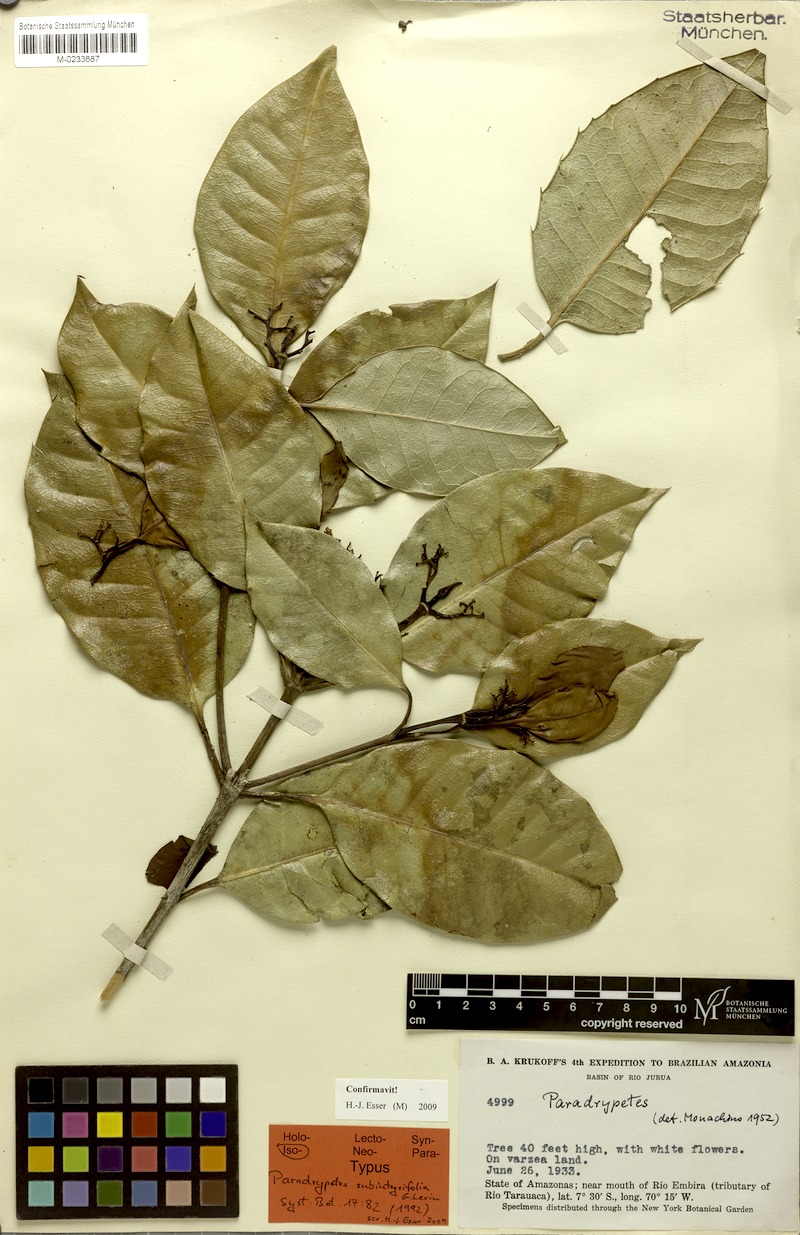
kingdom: Plantae
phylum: Tracheophyta
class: Magnoliopsida
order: Malpighiales
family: Rhizophoraceae
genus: Paradrypetes
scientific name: Paradrypetes subintegrifolia
